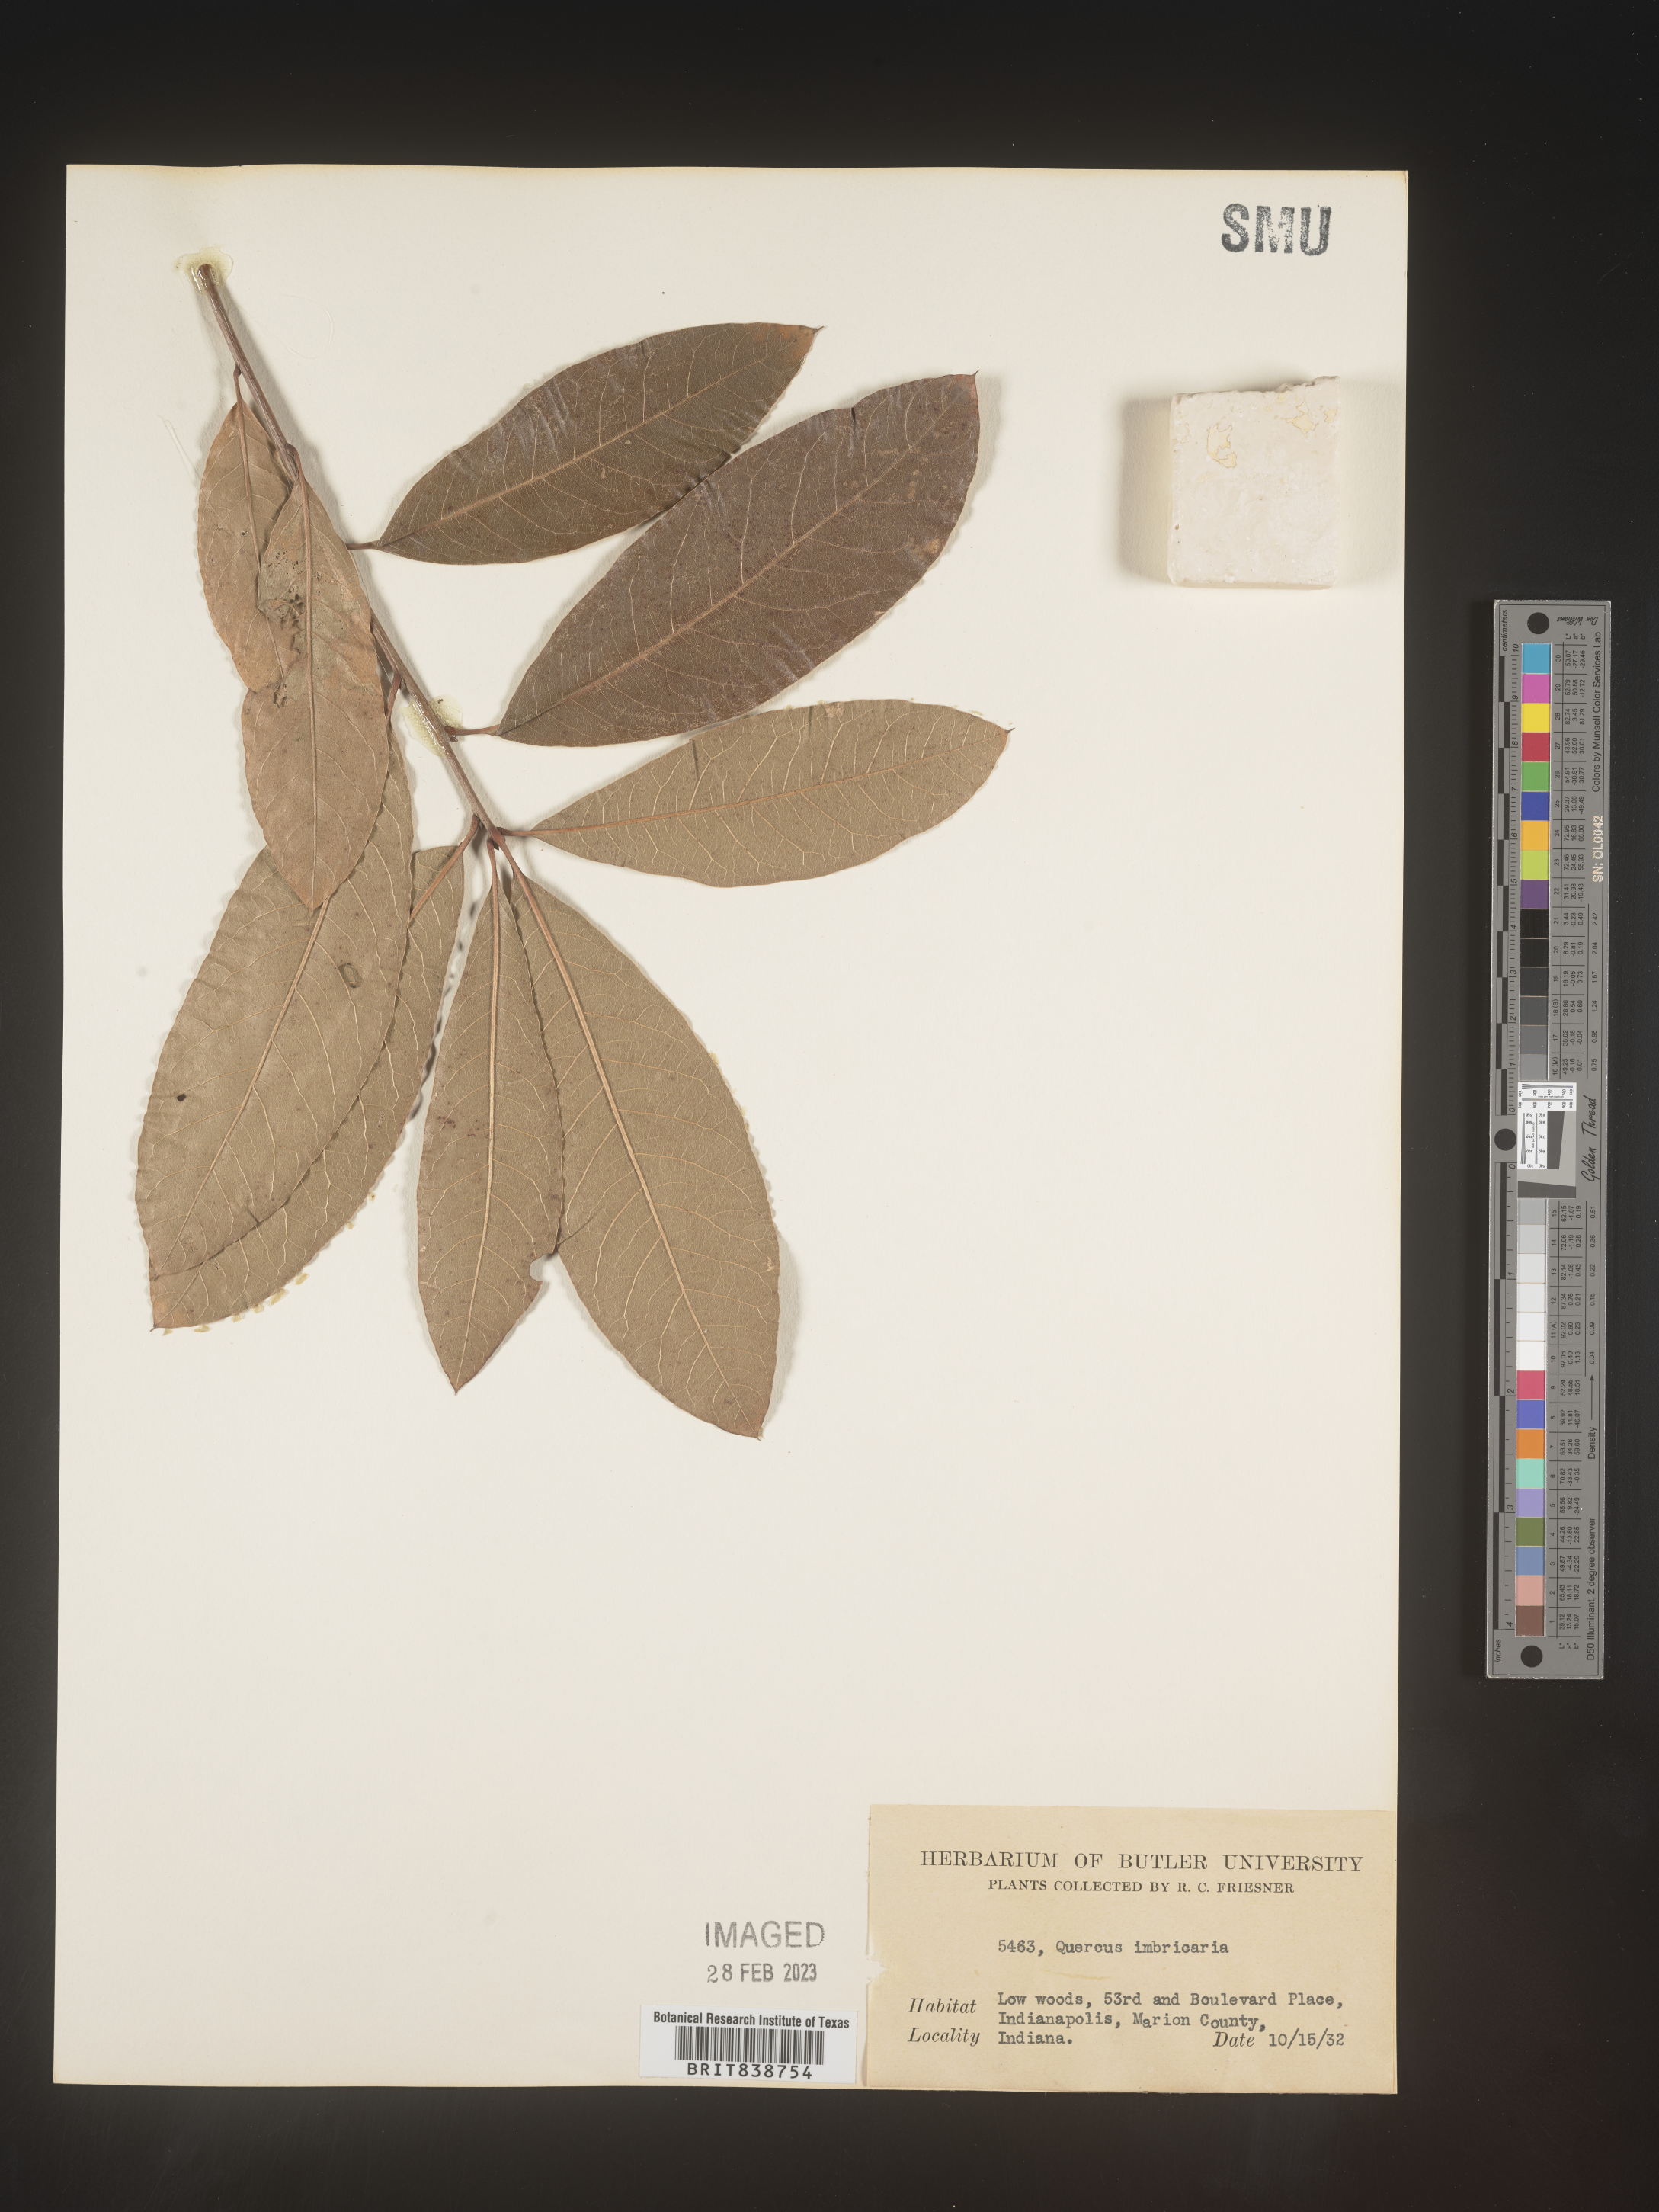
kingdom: Plantae
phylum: Tracheophyta
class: Magnoliopsida
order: Fagales
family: Fagaceae
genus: Quercus
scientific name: Quercus imbricaria
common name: Shingle oak
